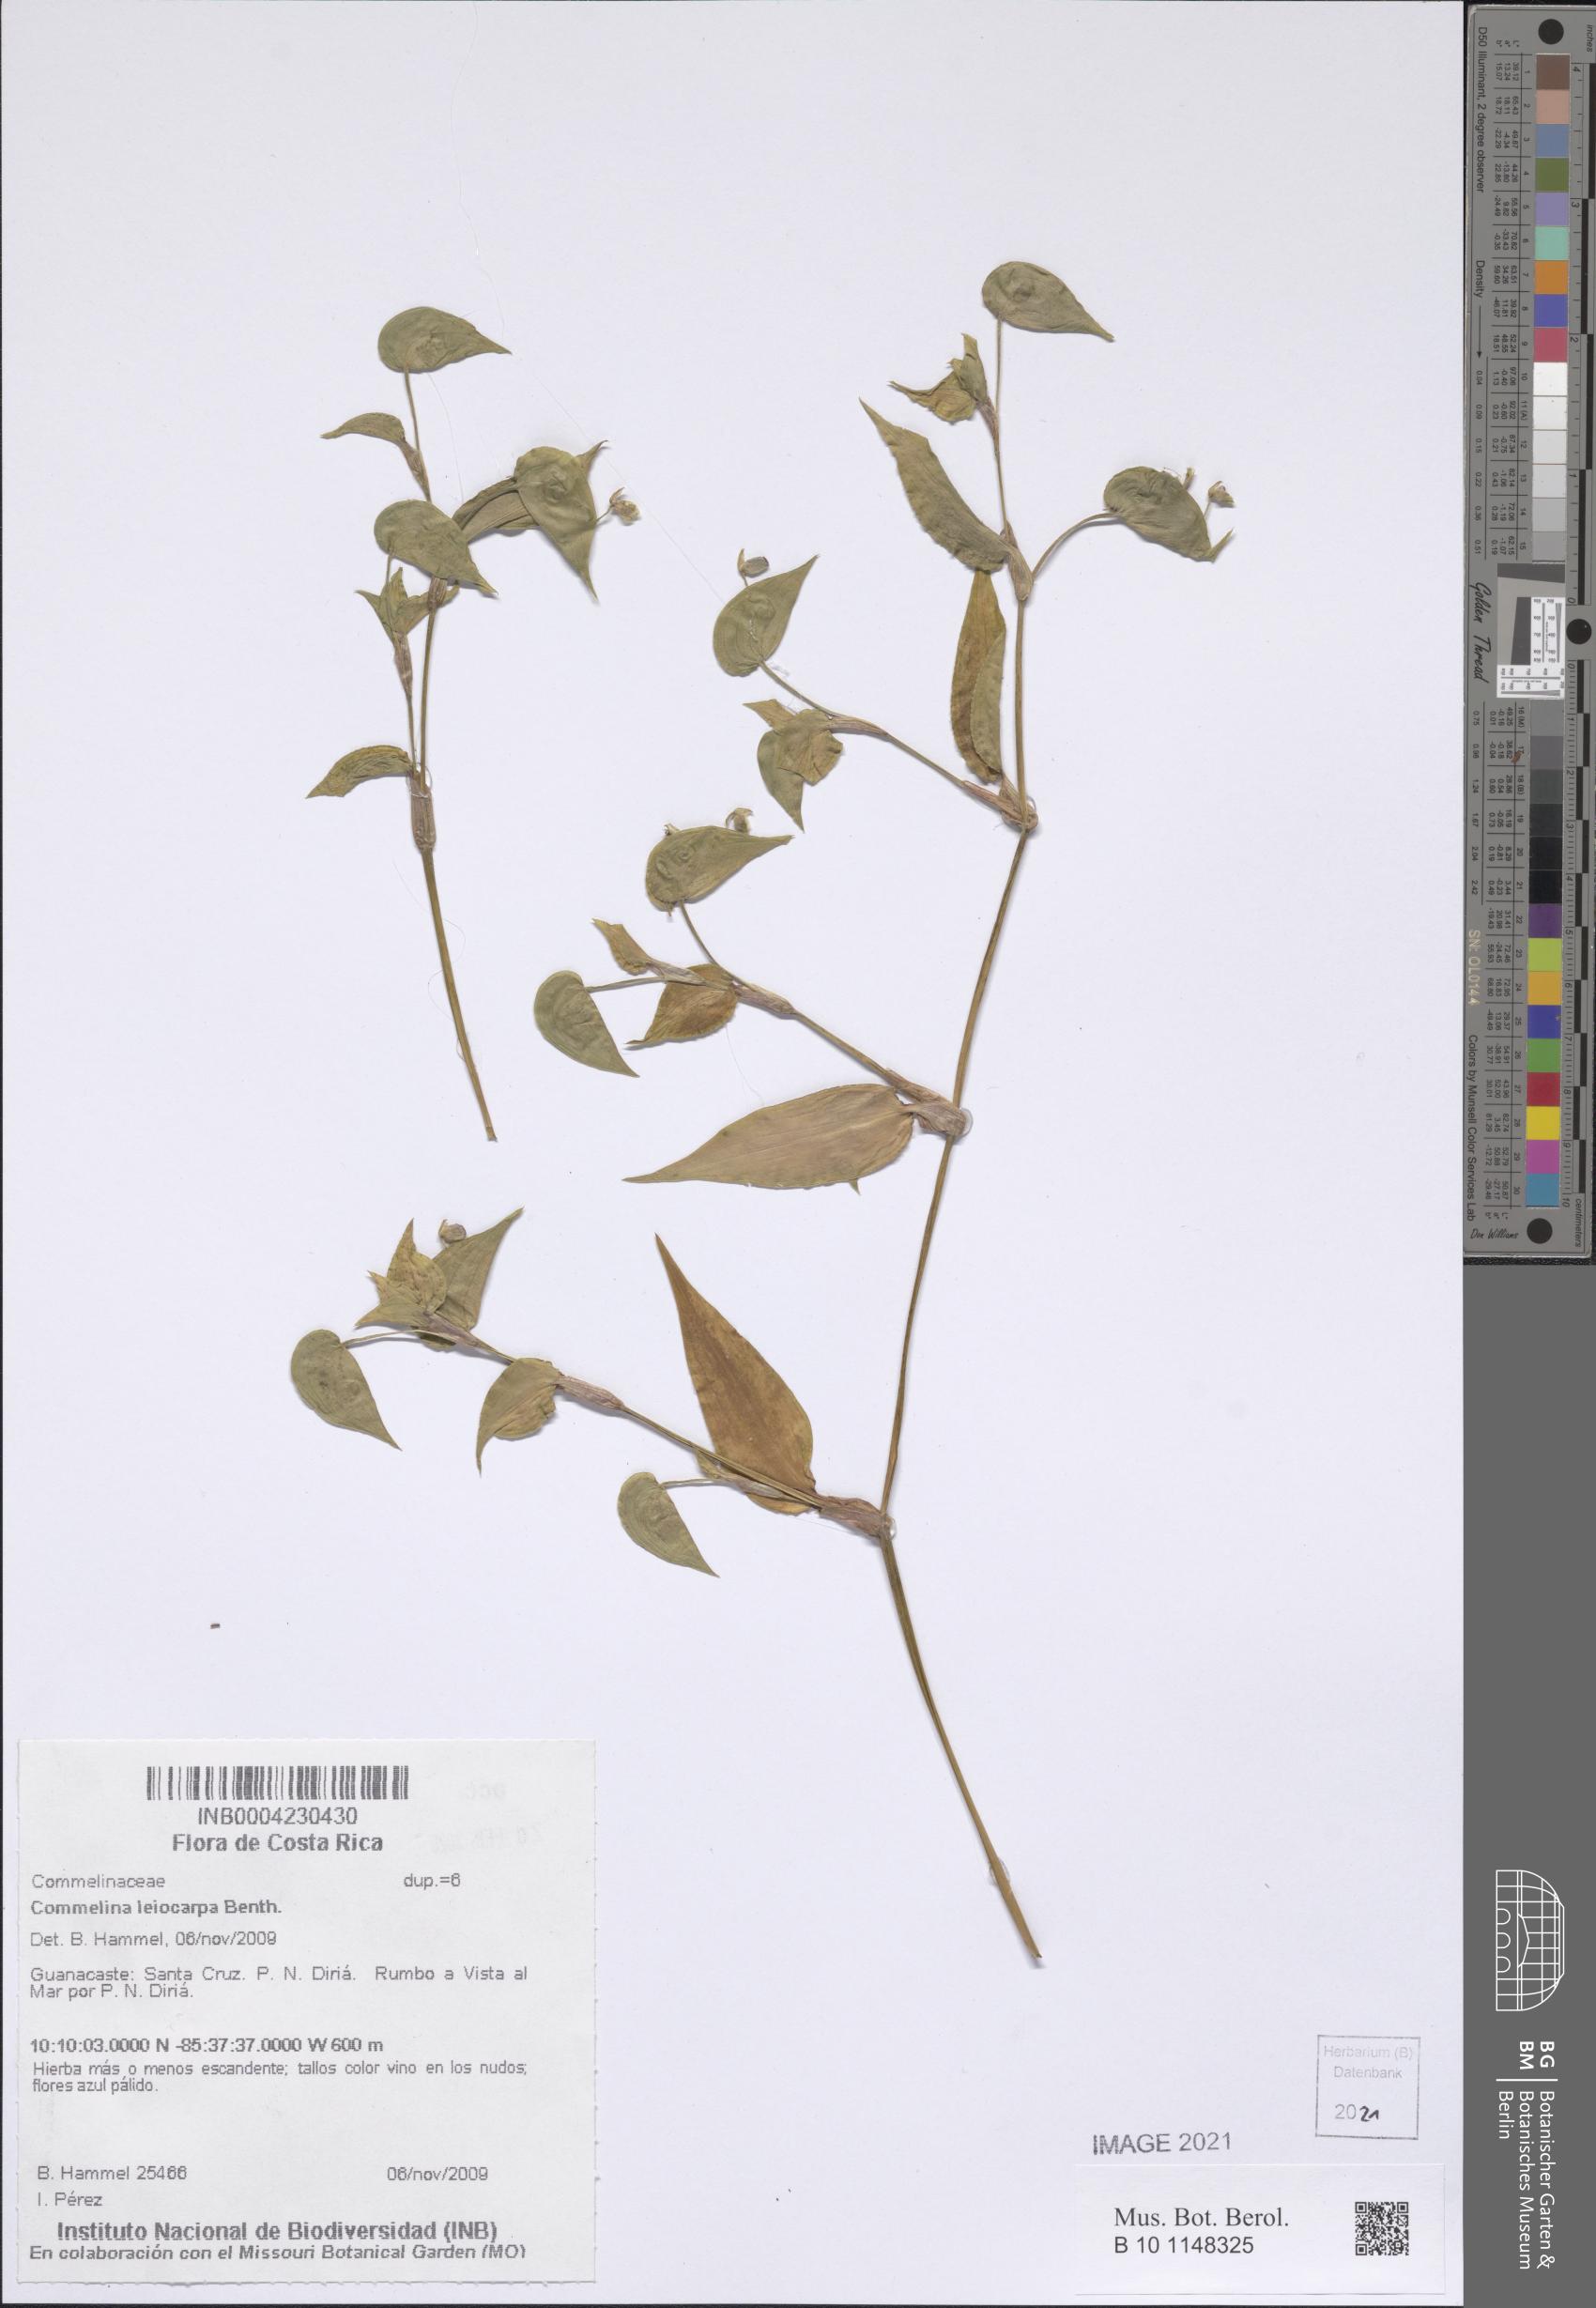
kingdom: Plantae
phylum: Tracheophyta
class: Liliopsida
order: Commelinales
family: Commelinaceae
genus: Commelina
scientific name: Commelina leiocarpa
